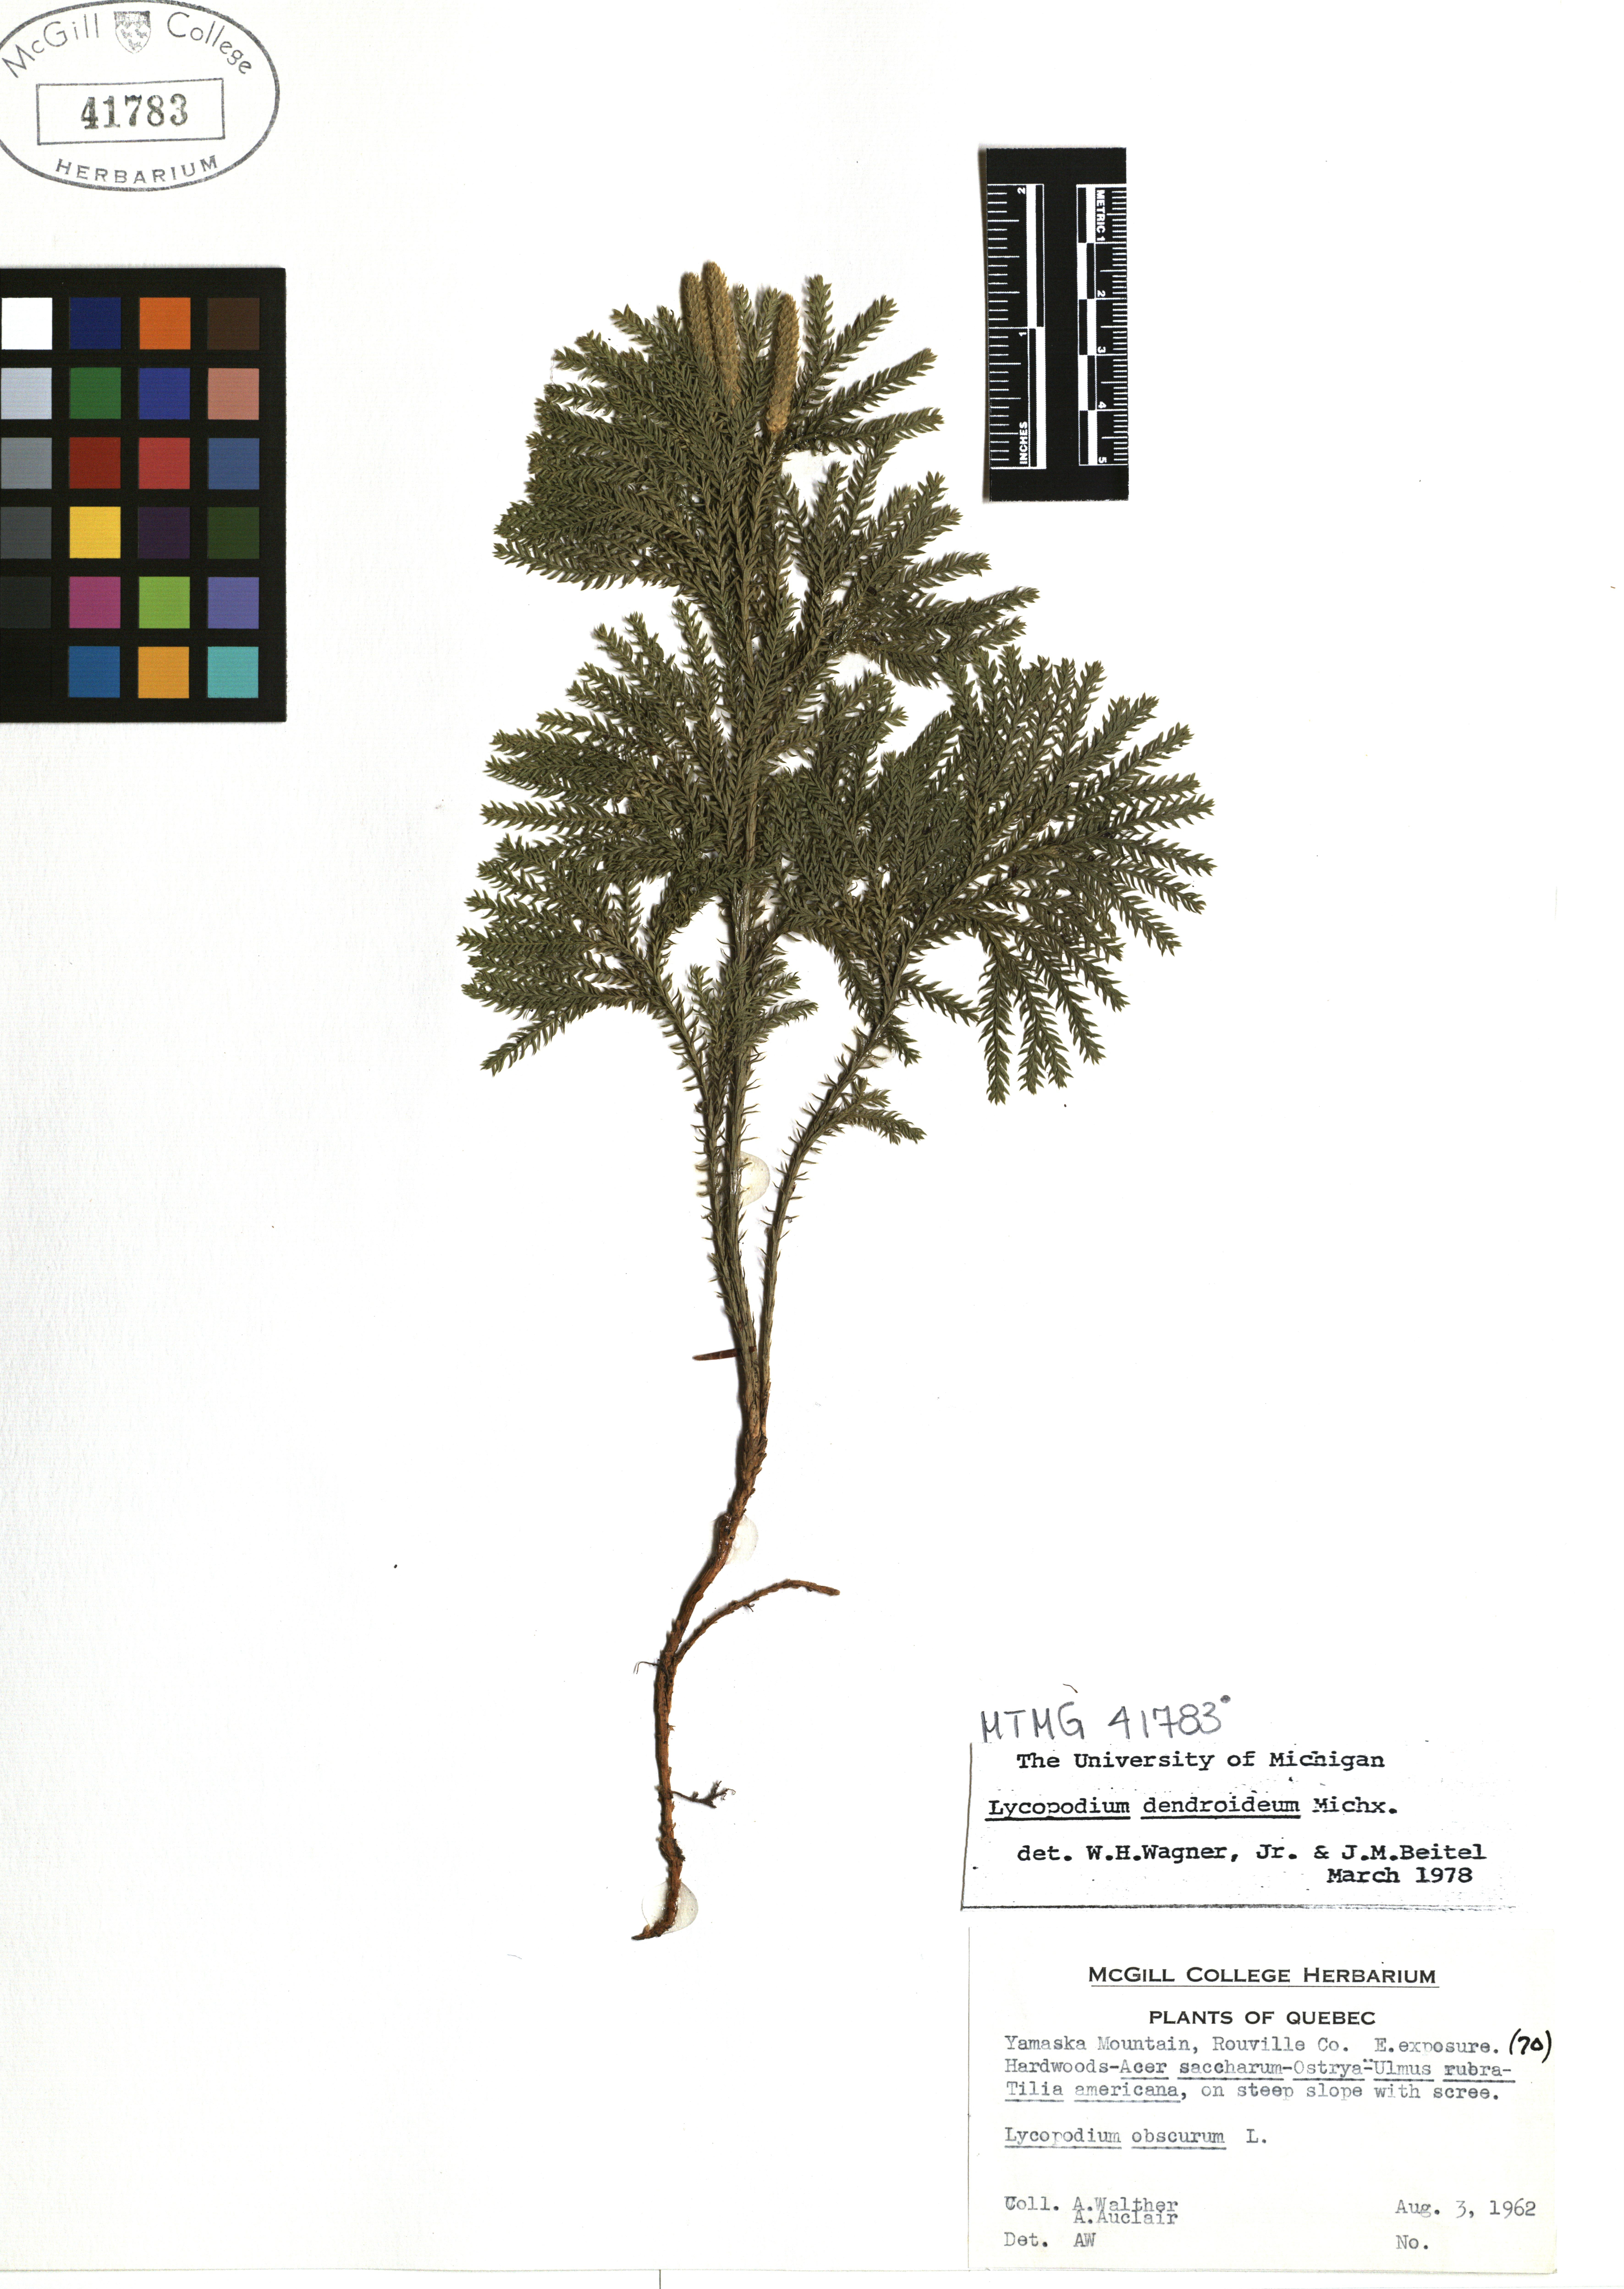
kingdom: Plantae
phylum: Tracheophyta
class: Lycopodiopsida
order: Lycopodiales
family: Lycopodiaceae
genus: Dendrolycopodium
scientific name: Dendrolycopodium dendroideum
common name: Northern tree-clubmoss
